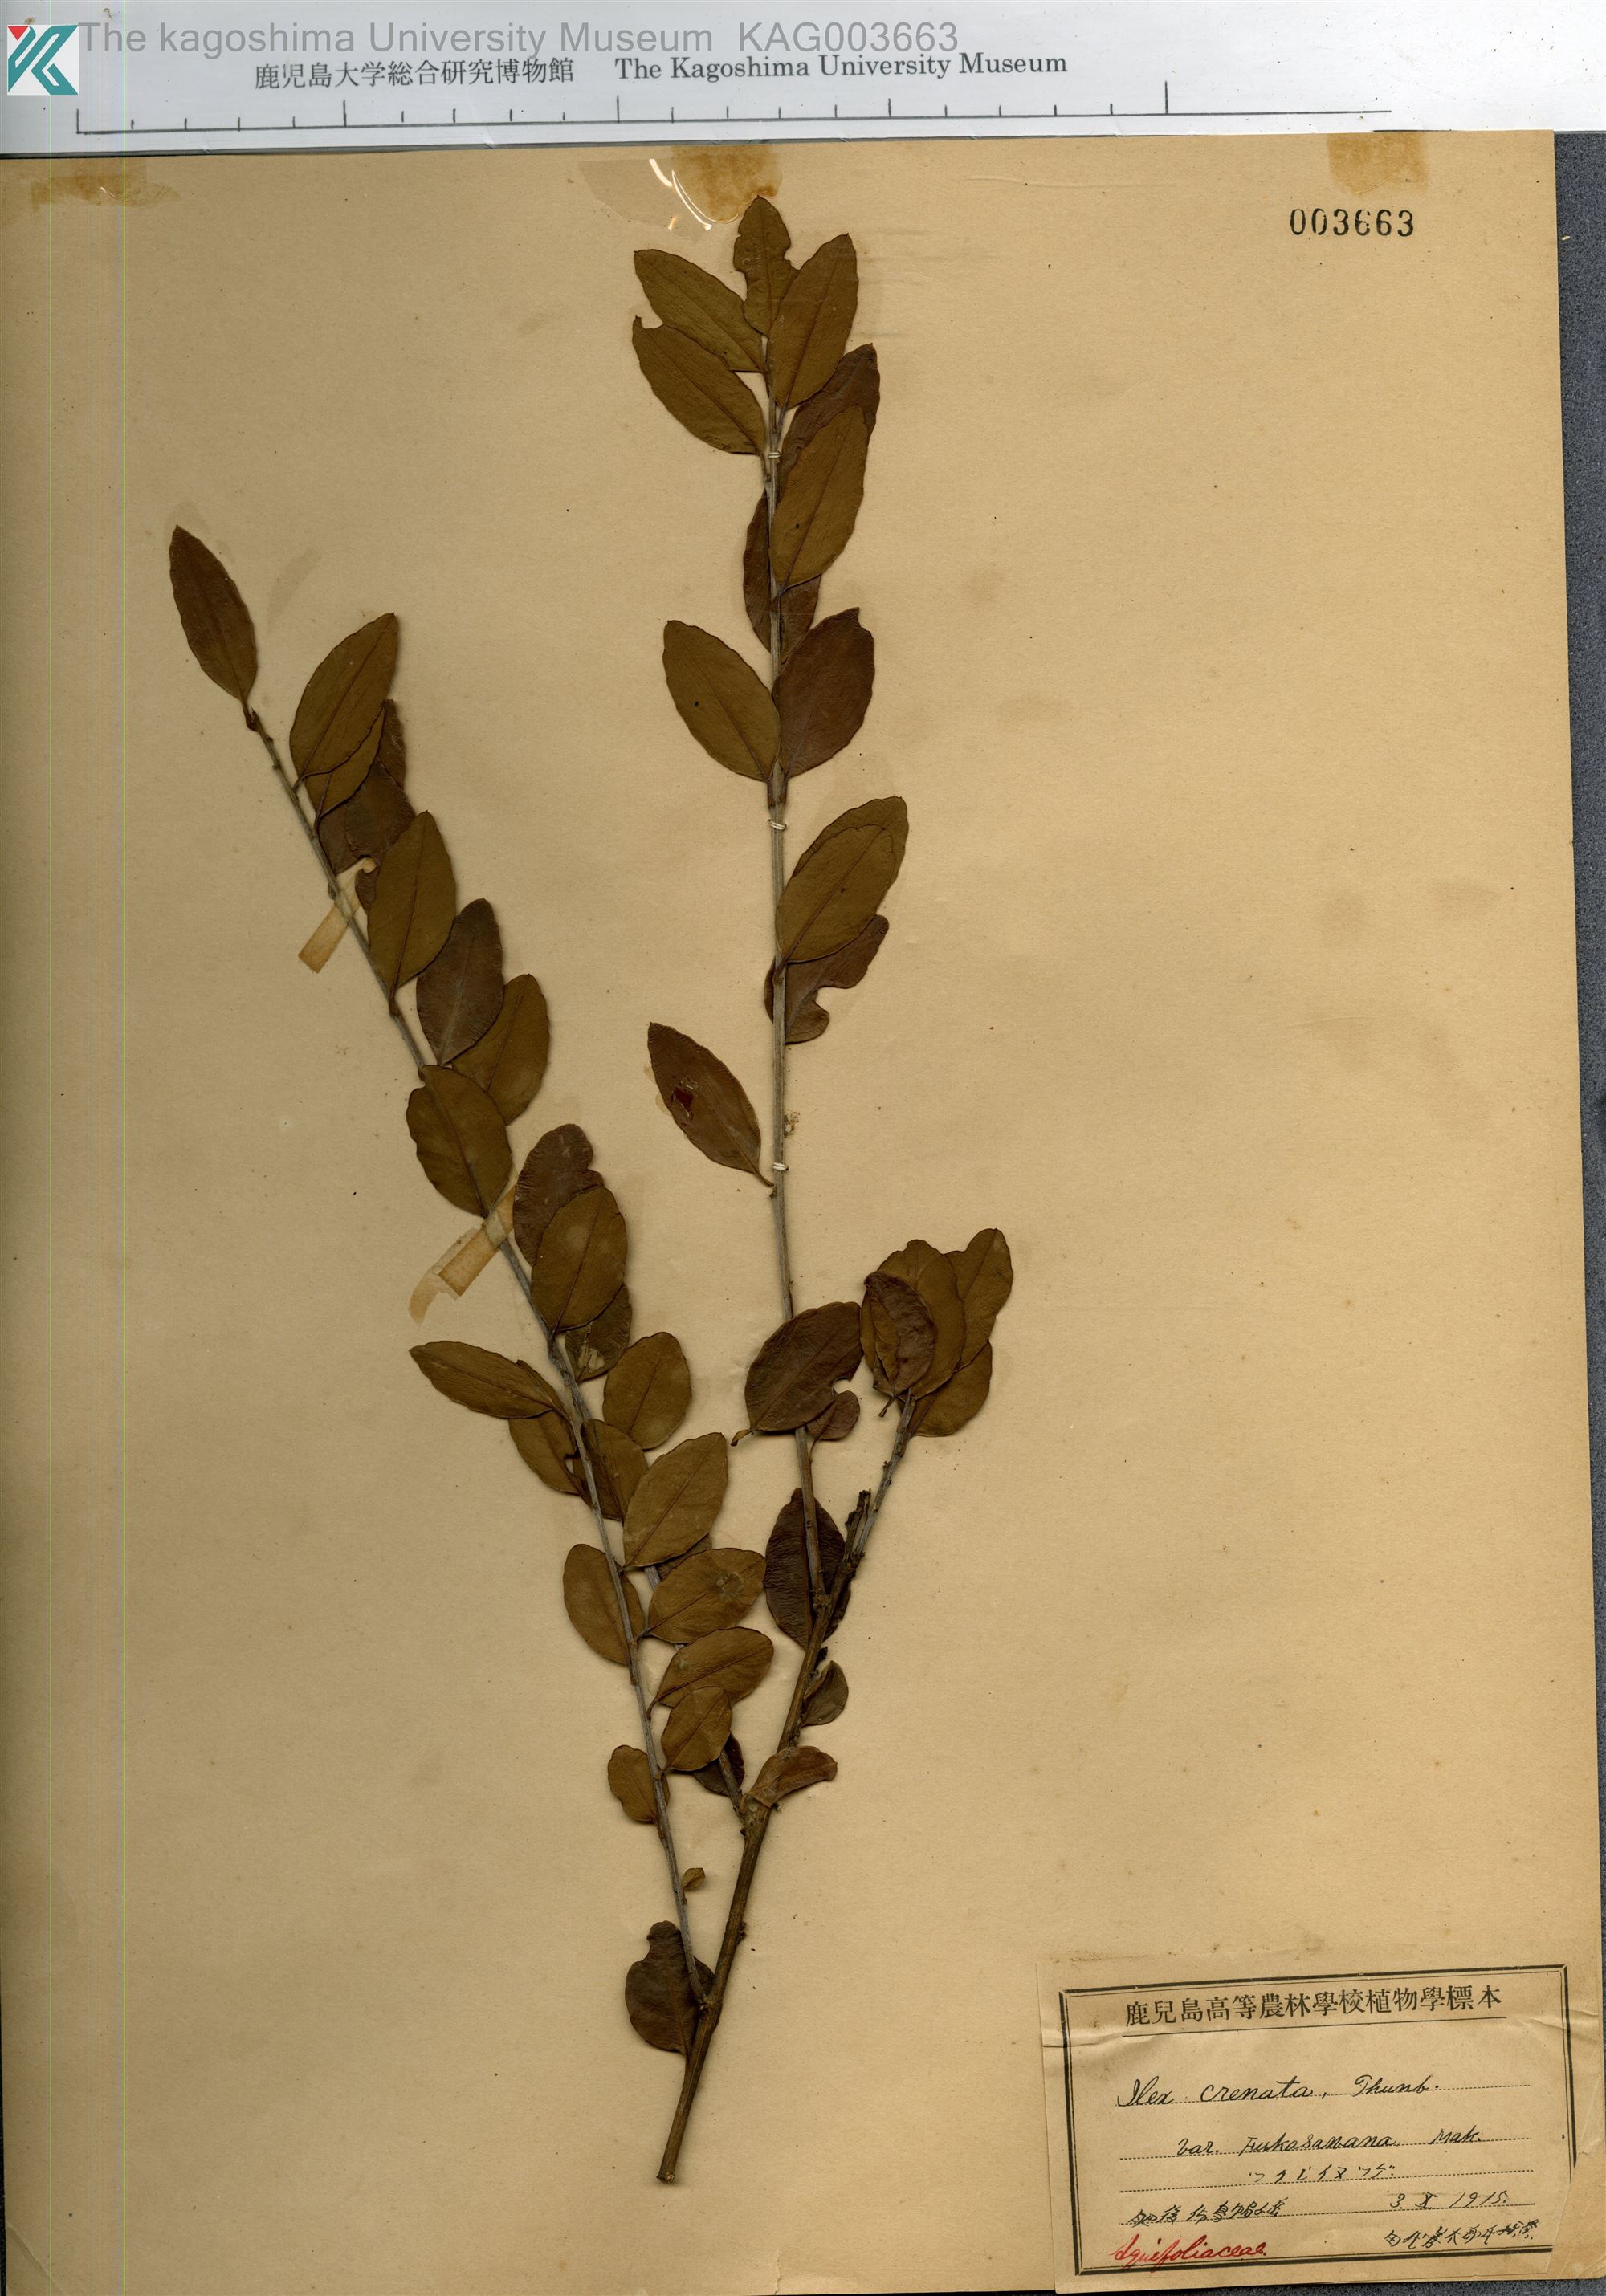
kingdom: Plantae
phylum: Tracheophyta
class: Magnoliopsida
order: Aquifoliales
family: Aquifoliaceae
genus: Ilex
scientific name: Ilex crenata
